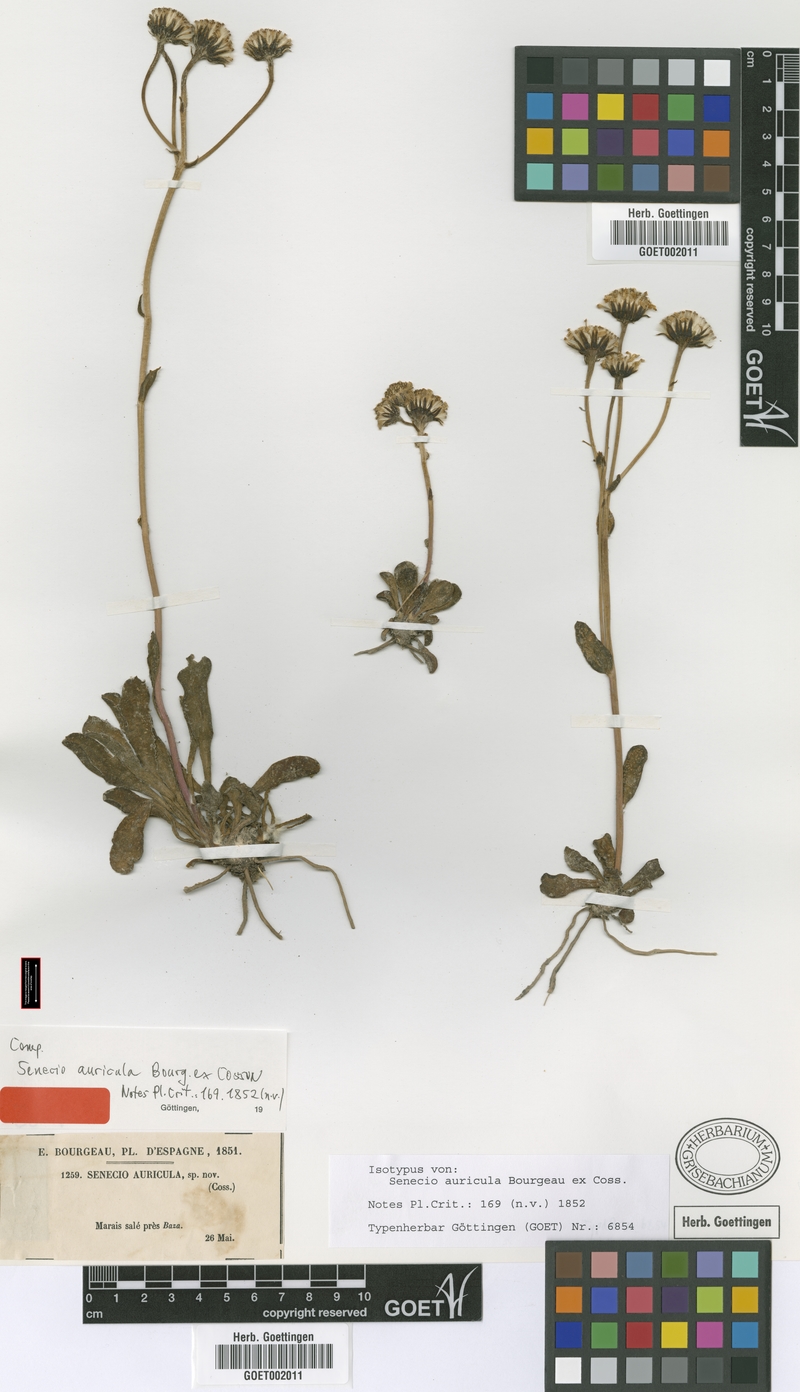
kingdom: Plantae
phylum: Tracheophyta
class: Magnoliopsida
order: Asterales
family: Asteraceae
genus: Senecio
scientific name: Senecio auricula
